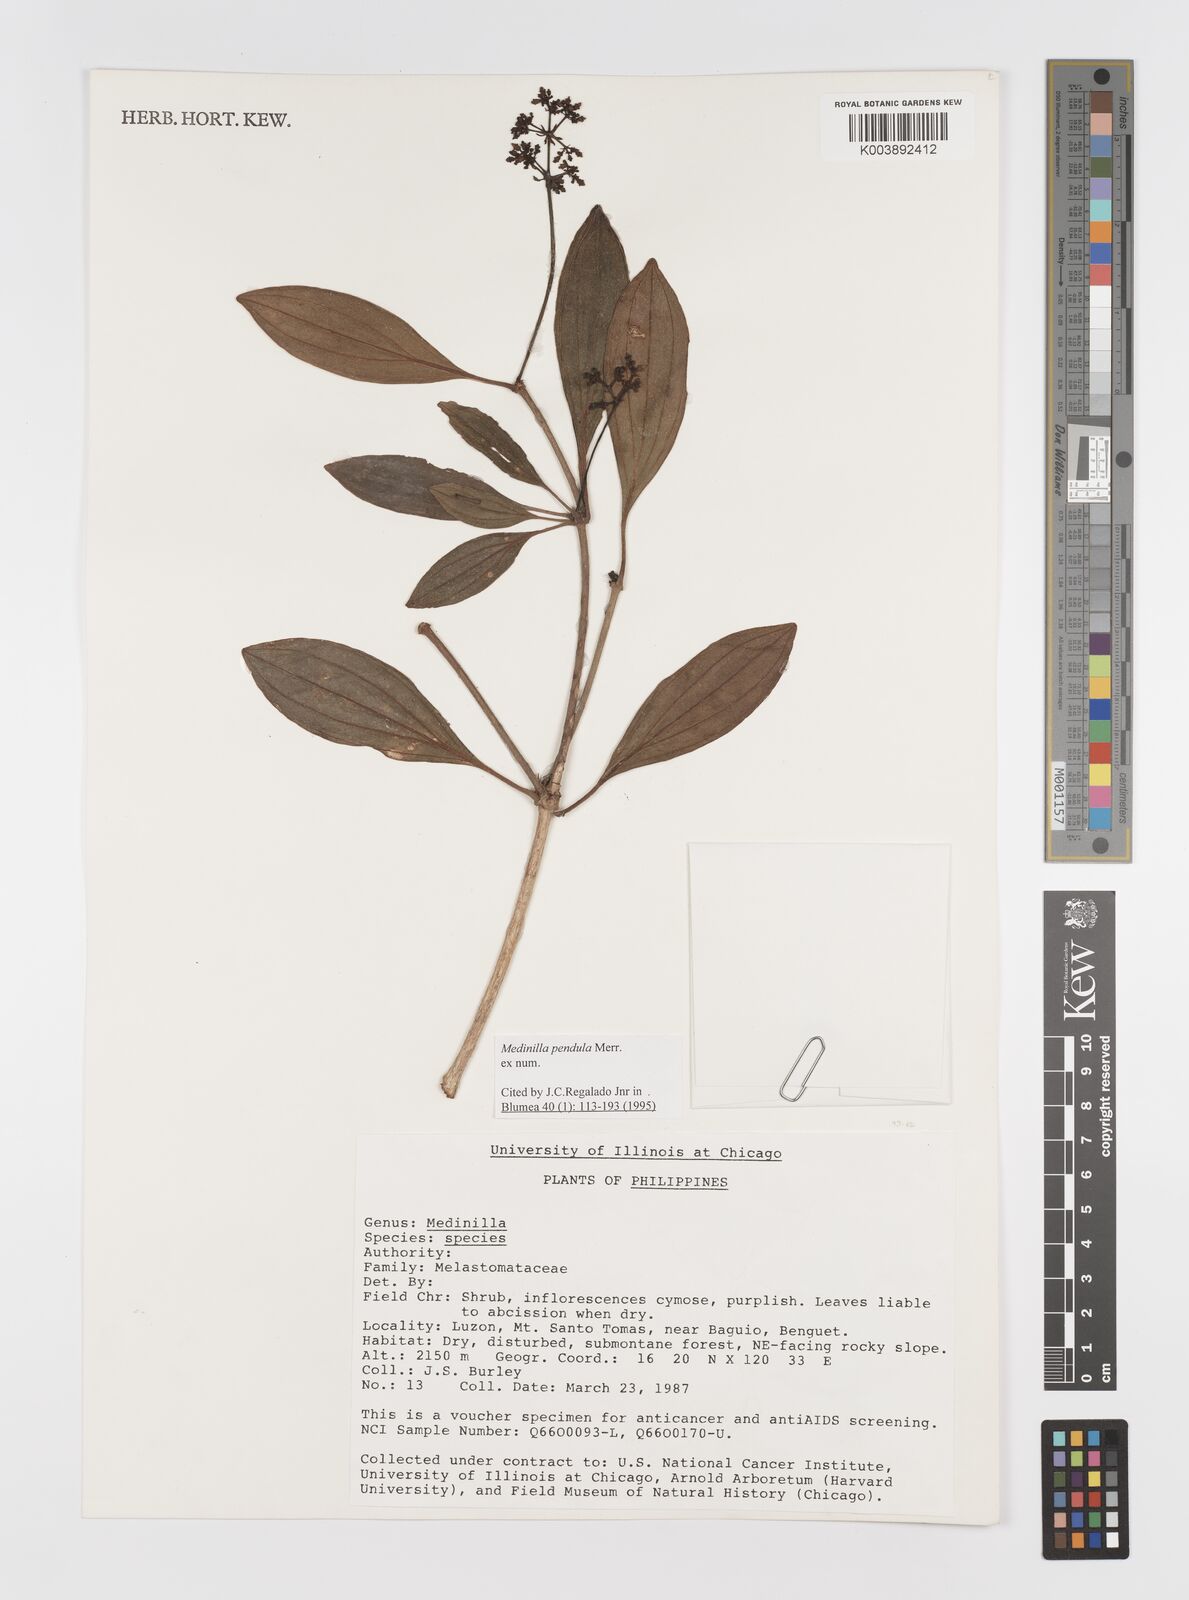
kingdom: Plantae
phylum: Tracheophyta
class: Magnoliopsida
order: Myrtales
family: Melastomataceae
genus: Medinilla
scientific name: Medinilla pendula
